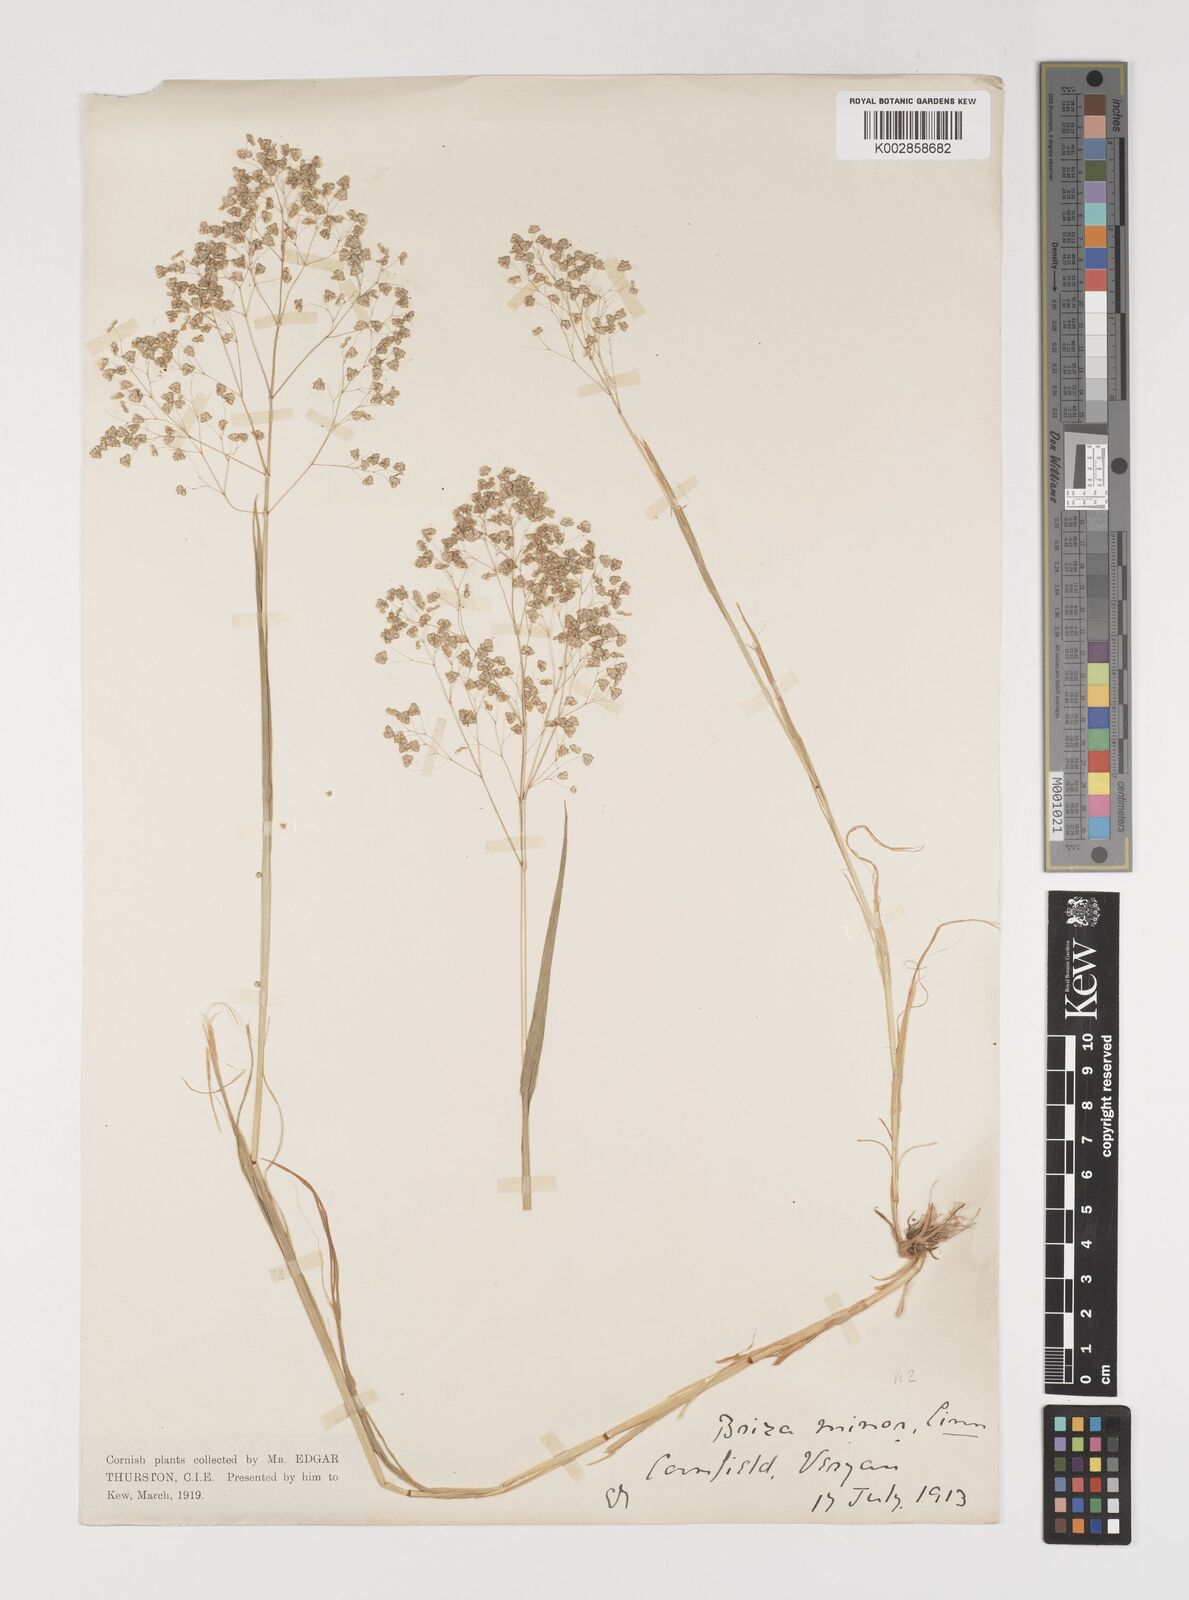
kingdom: Plantae
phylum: Tracheophyta
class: Liliopsida
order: Poales
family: Poaceae
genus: Briza
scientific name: Briza minor
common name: Lesser quaking-grass
